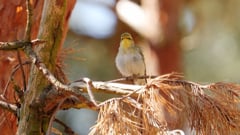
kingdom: Animalia
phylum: Chordata
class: Aves
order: Passeriformes
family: Phylloscopidae
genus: Phylloscopus
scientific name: Phylloscopus sibillatrix
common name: Wood warbler
